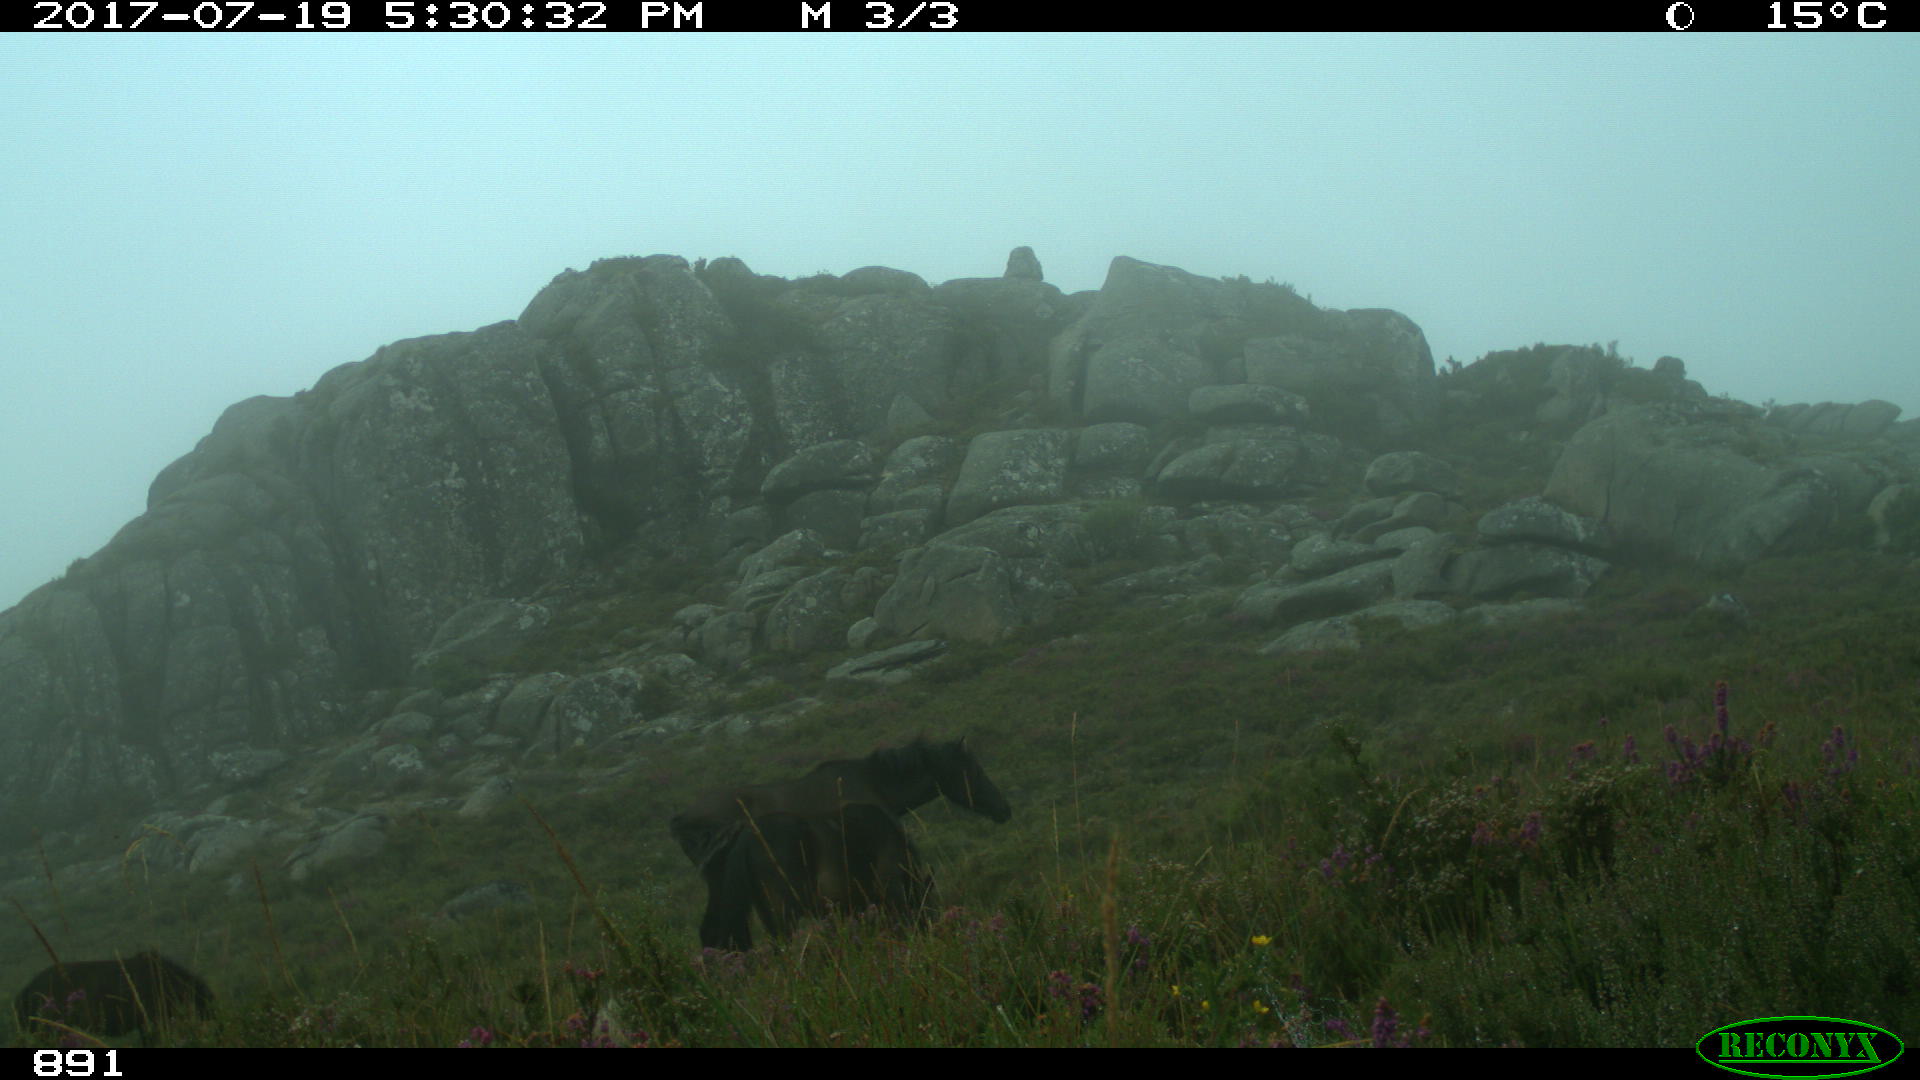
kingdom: Animalia
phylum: Chordata
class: Mammalia
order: Perissodactyla
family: Equidae
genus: Equus
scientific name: Equus caballus
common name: Horse
